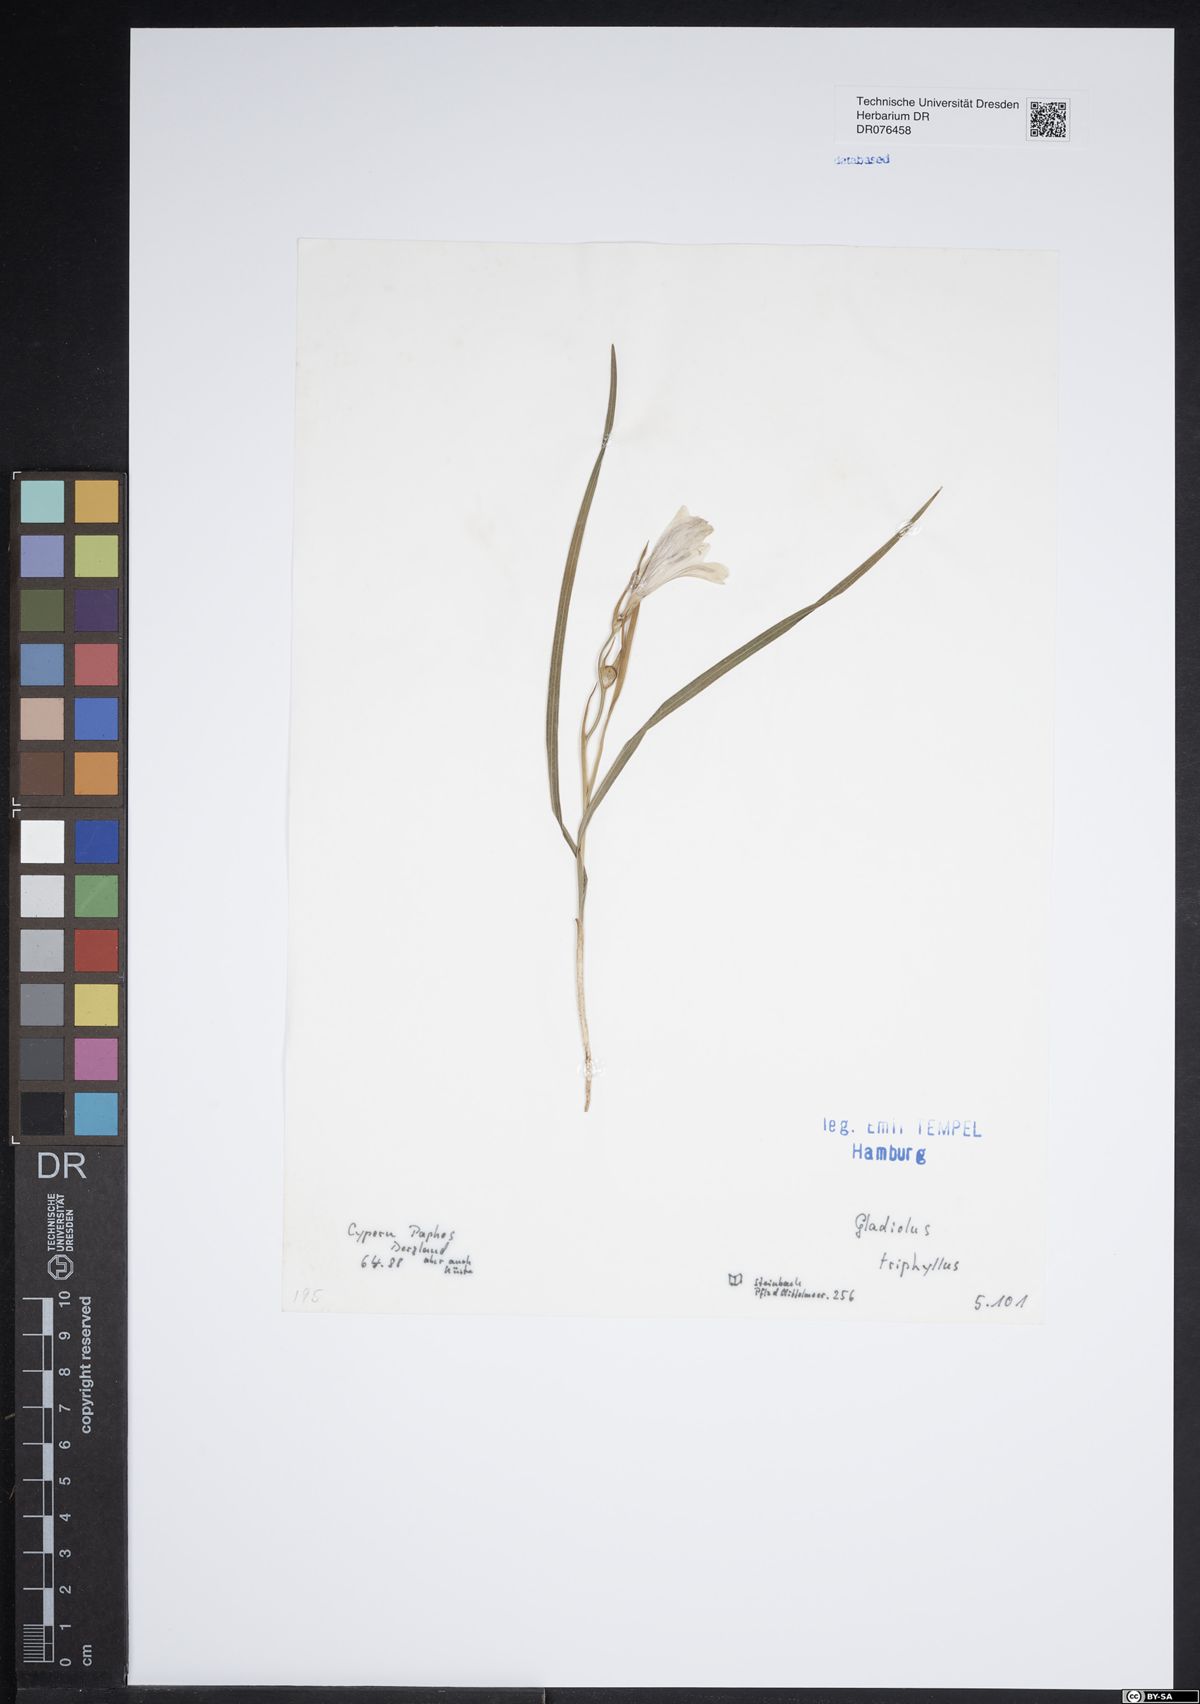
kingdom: Plantae
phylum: Tracheophyta
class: Liliopsida
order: Asparagales
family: Iridaceae
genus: Gladiolus
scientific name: Gladiolus triphyllus
